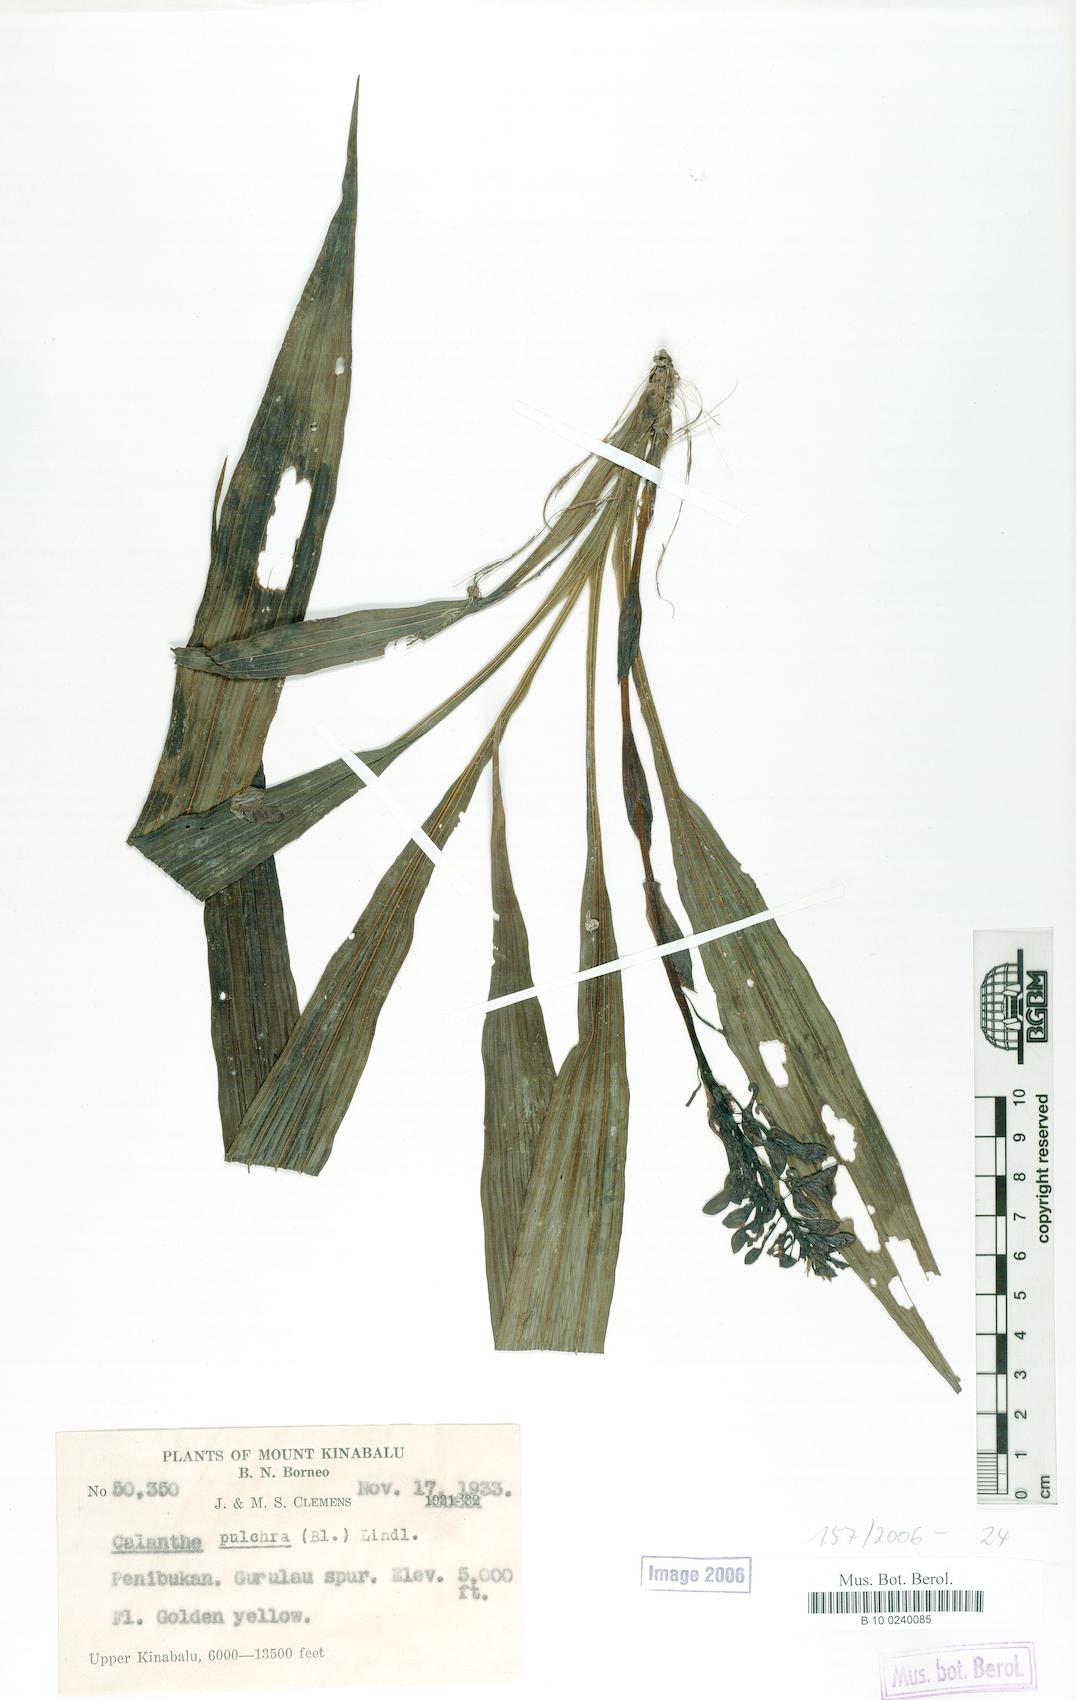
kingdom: Plantae
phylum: Tracheophyta
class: Liliopsida
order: Asparagales
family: Orchidaceae
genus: Calanthe
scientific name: Calanthe pulchra
